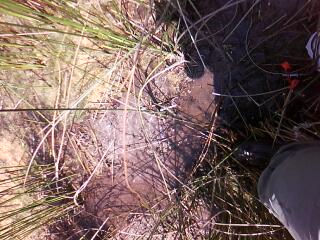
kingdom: Plantae
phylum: Tracheophyta
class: Liliopsida
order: Poales
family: Cyperaceae
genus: Scirpus
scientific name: Scirpus atrovirens
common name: Black bulrush
